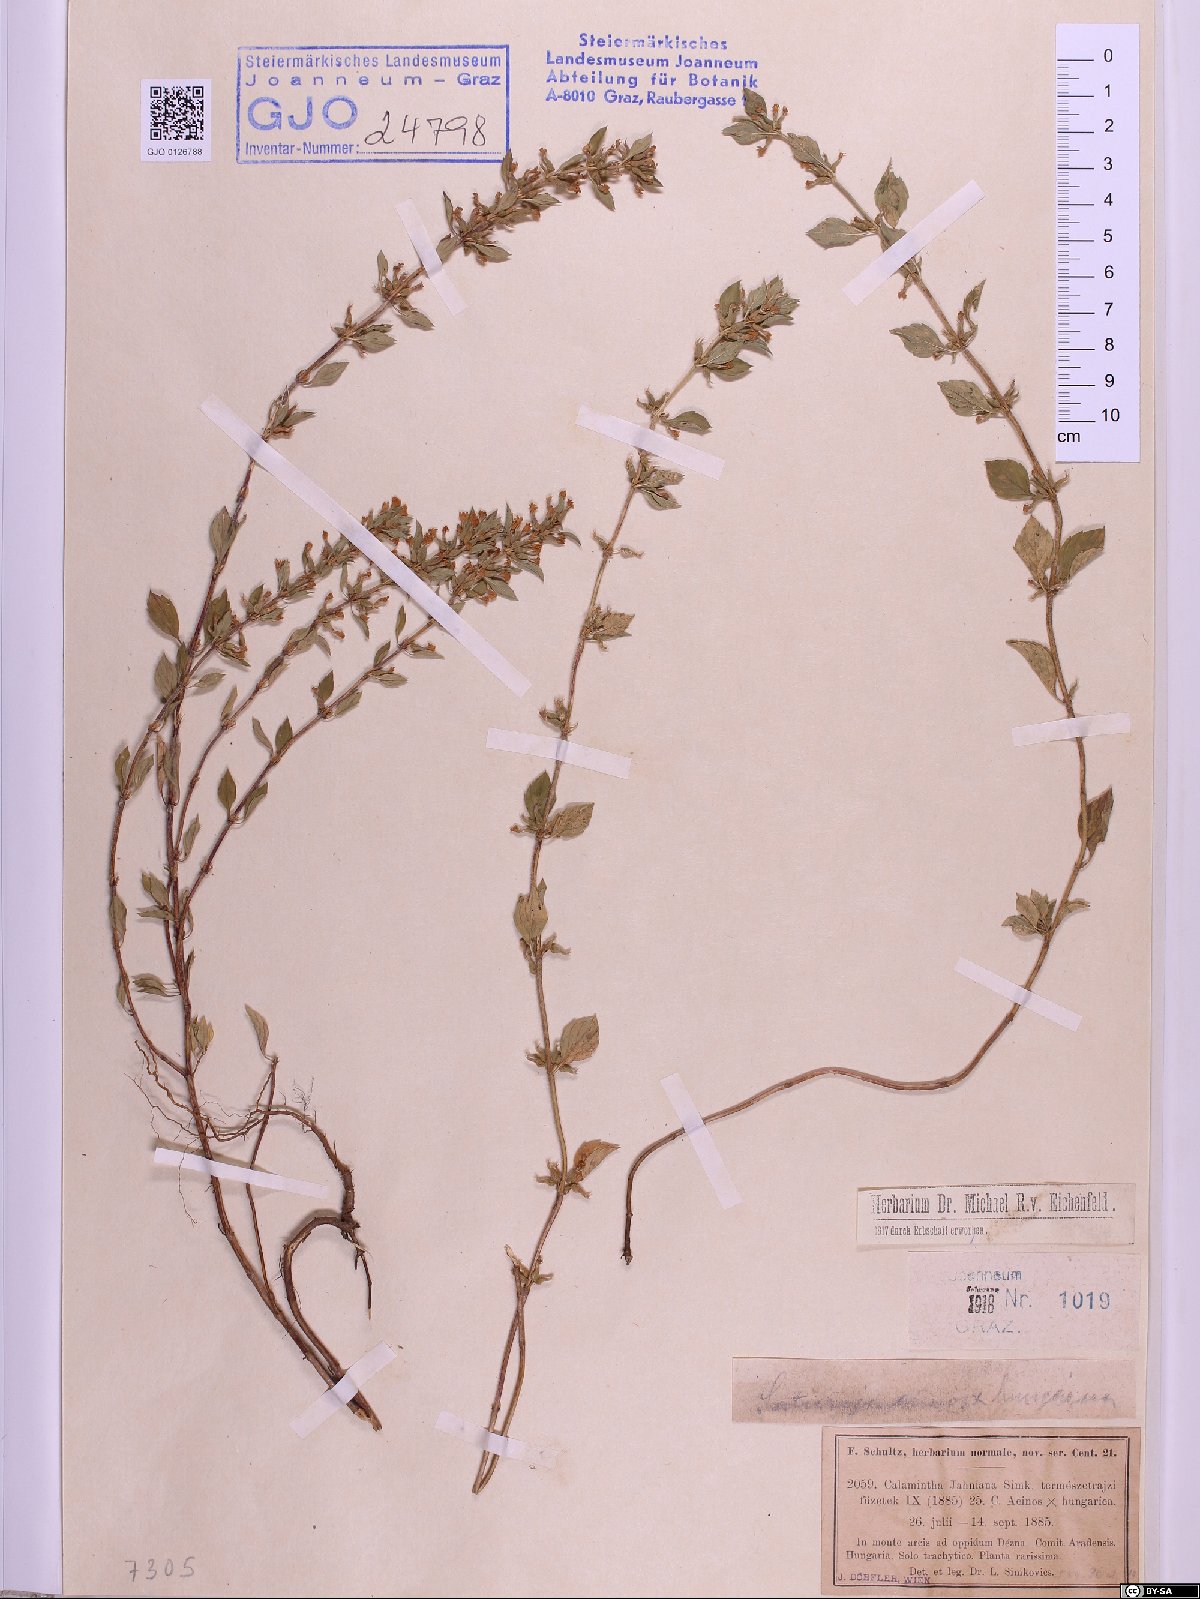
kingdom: Plantae
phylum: Tracheophyta
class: Magnoliopsida
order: Lamiales
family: Lamiaceae
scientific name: Lamiaceae
